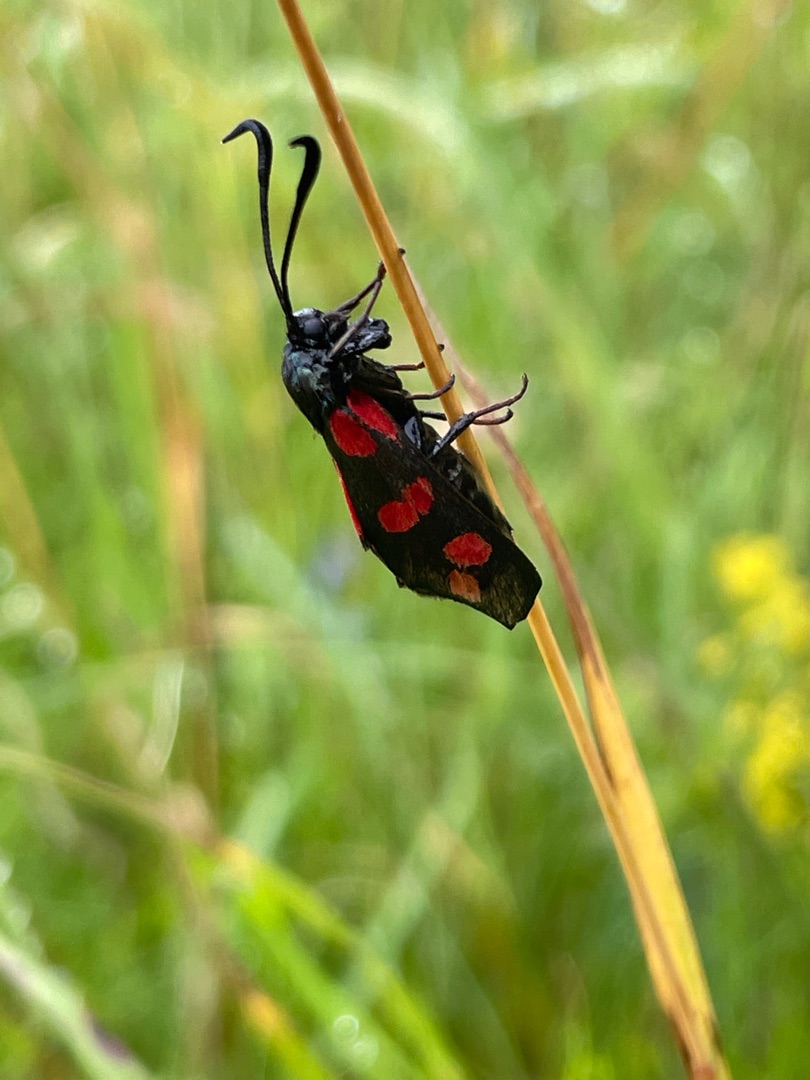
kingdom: Animalia
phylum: Arthropoda
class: Insecta
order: Lepidoptera
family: Zygaenidae
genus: Zygaena
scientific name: Zygaena filipendulae
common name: Seksplettet køllesværmer
